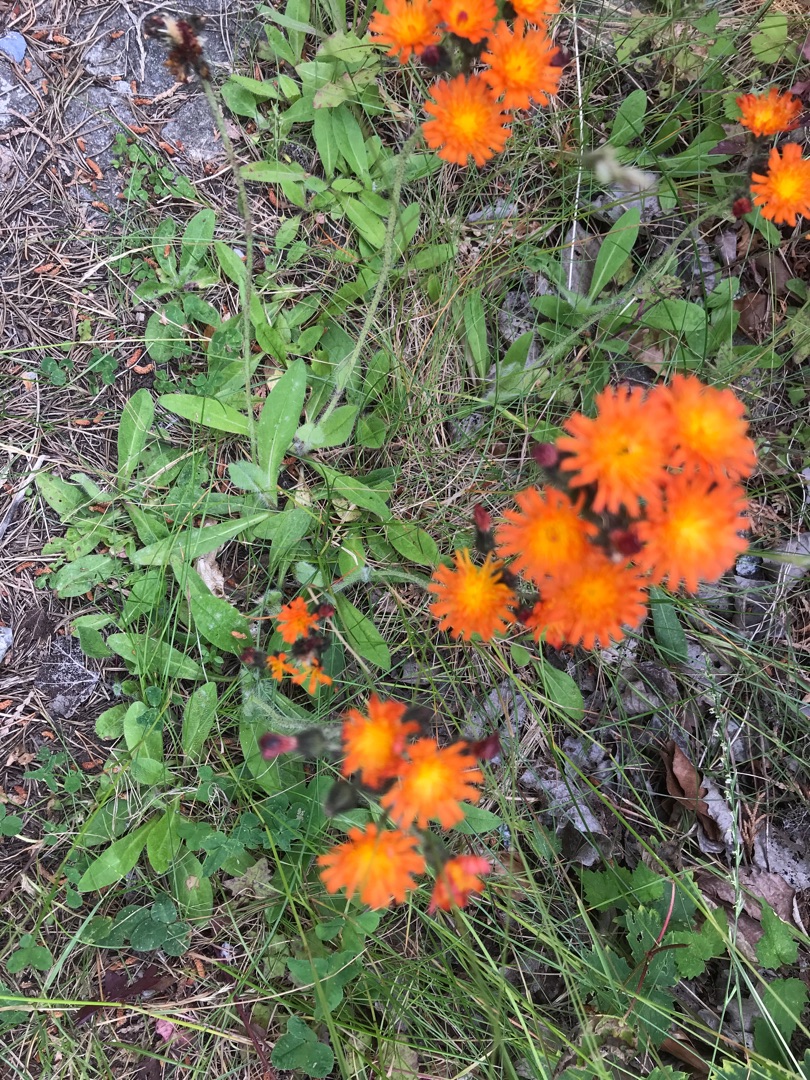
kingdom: Plantae
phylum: Tracheophyta
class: Magnoliopsida
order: Asterales
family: Asteraceae
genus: Pilosella
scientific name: Pilosella aurantiaca
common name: Pomerans-høgeurt
